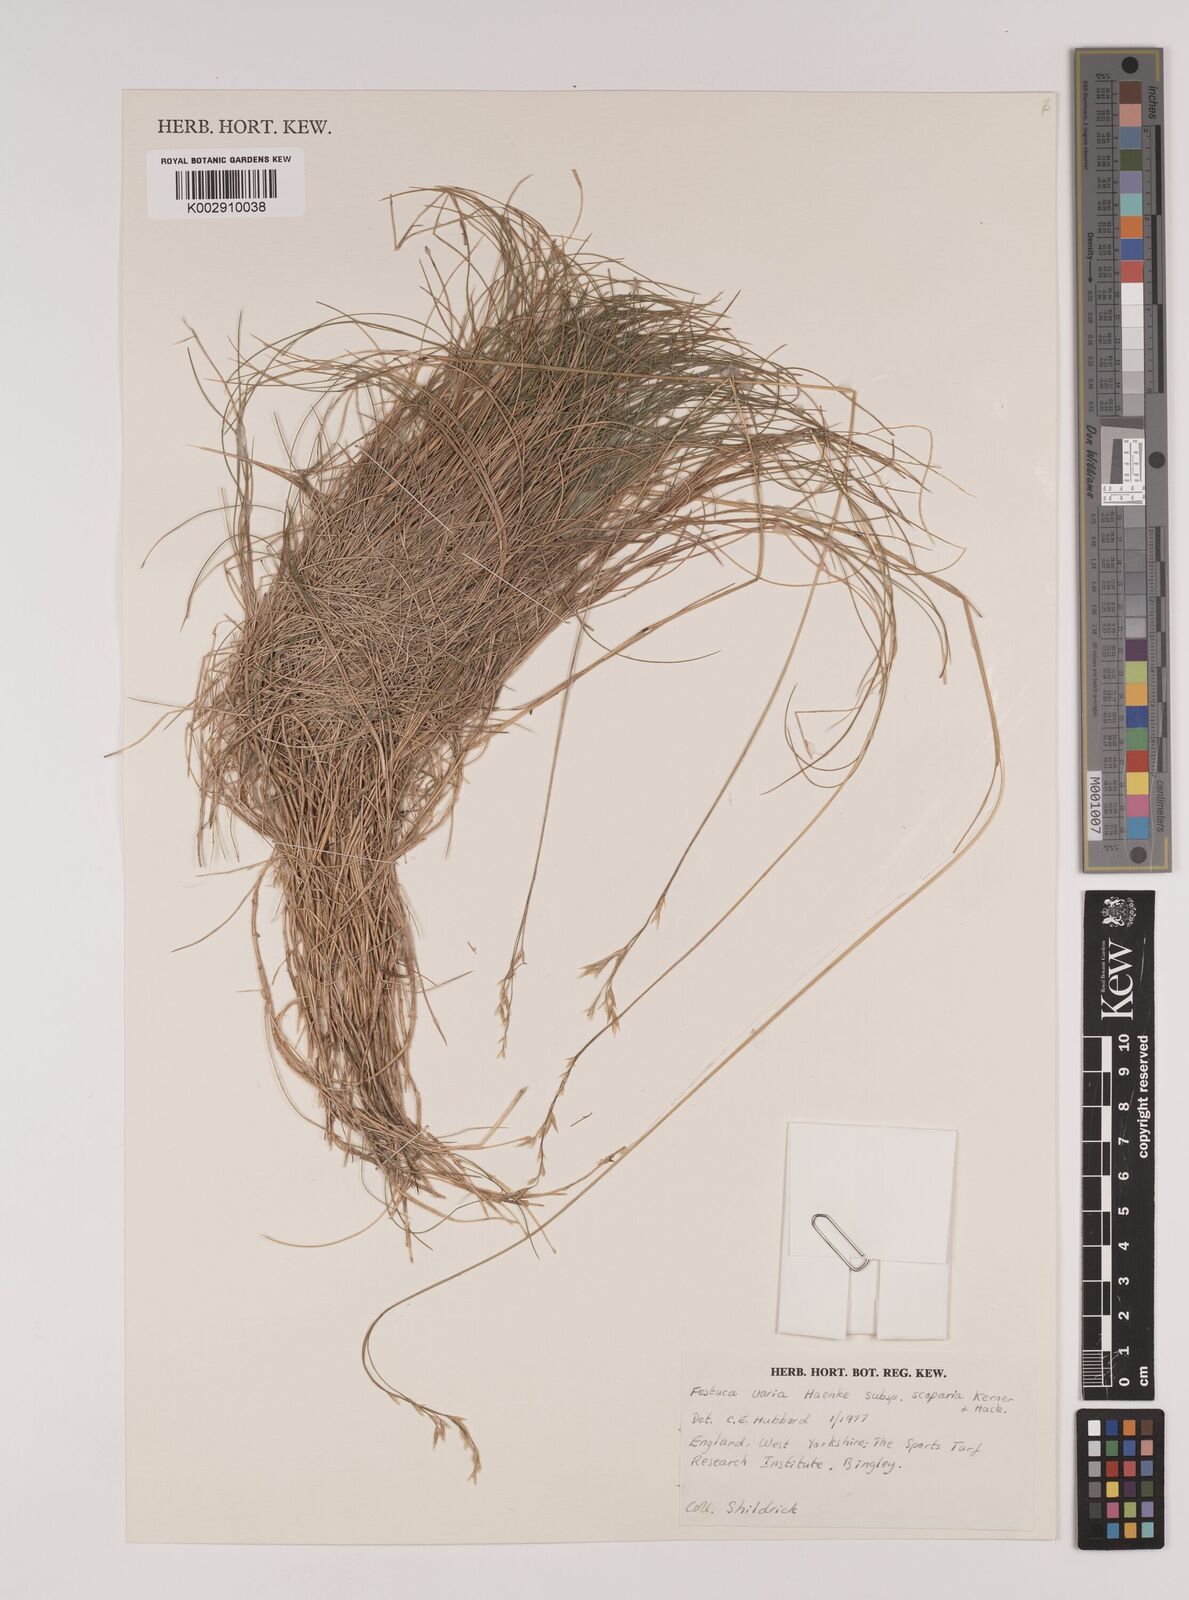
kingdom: Plantae
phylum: Tracheophyta
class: Liliopsida
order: Poales
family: Poaceae
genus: Festuca
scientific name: Festuca gautieri
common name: Spiky fescue
